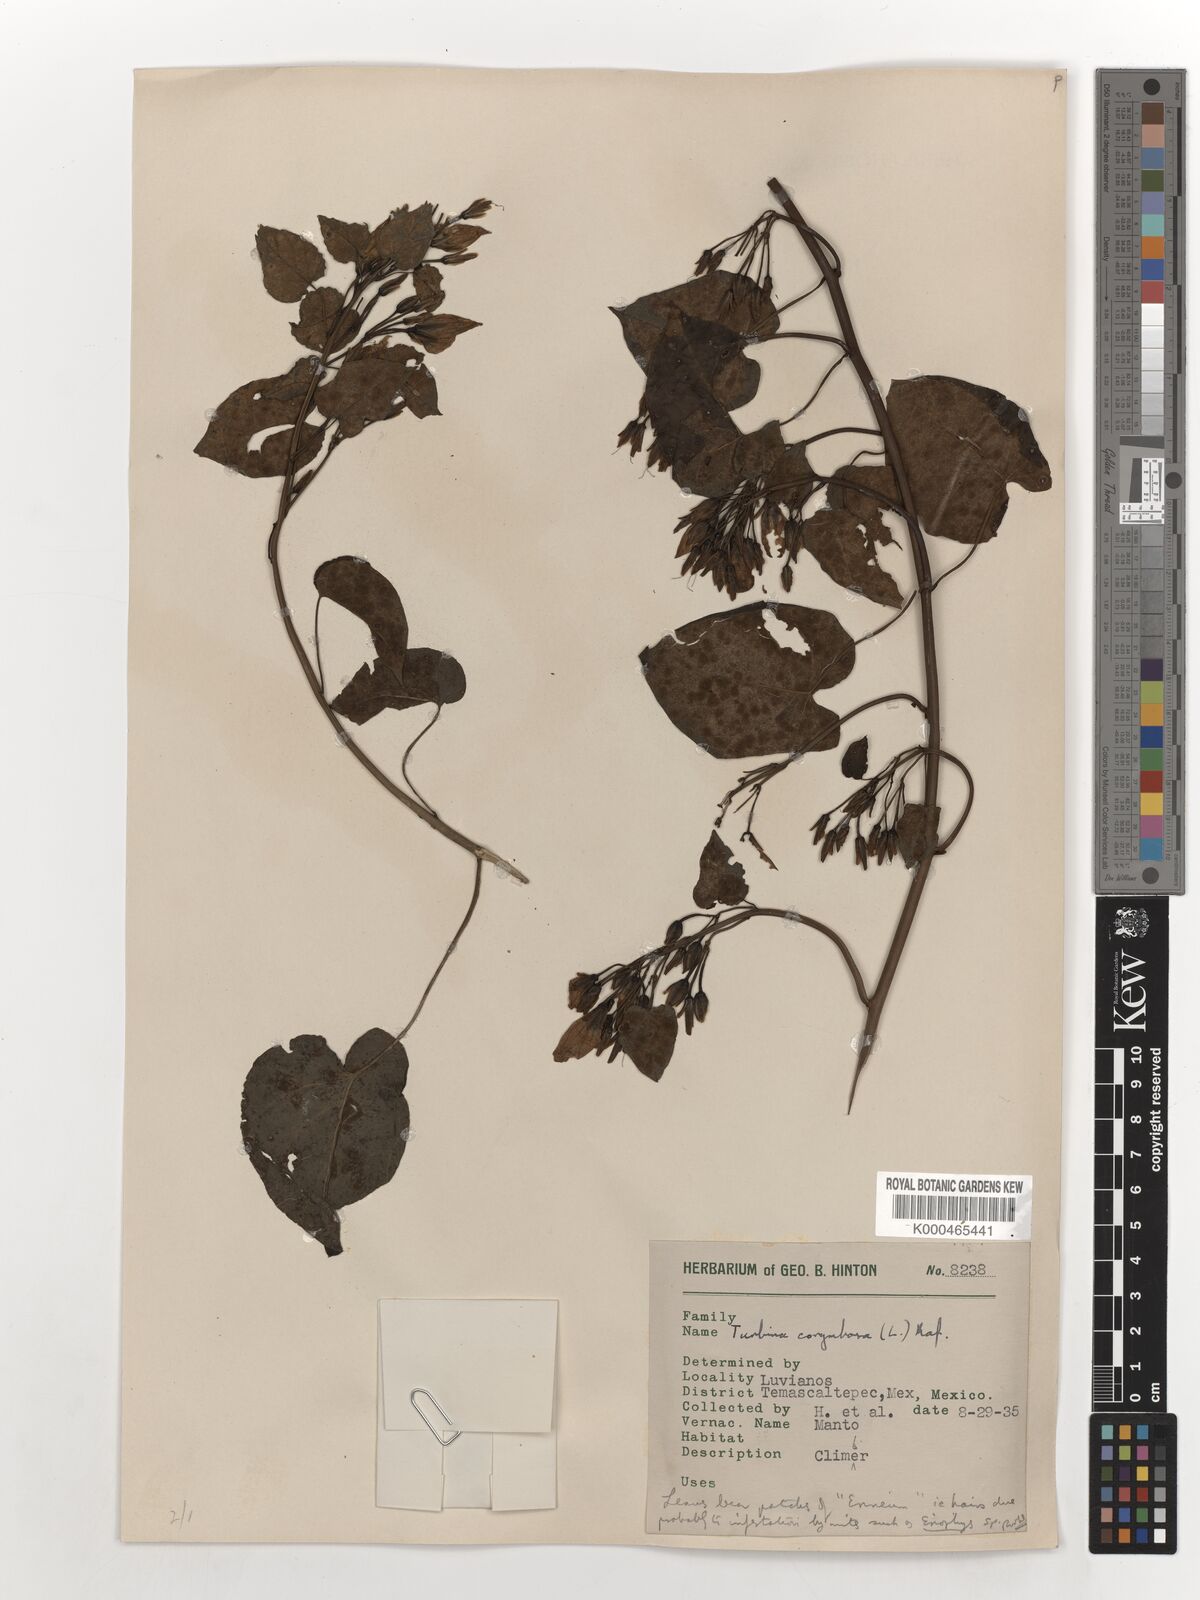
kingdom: Plantae
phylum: Tracheophyta
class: Magnoliopsida
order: Solanales
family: Convolvulaceae
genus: Ipomoea
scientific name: Ipomoea corymbosa
